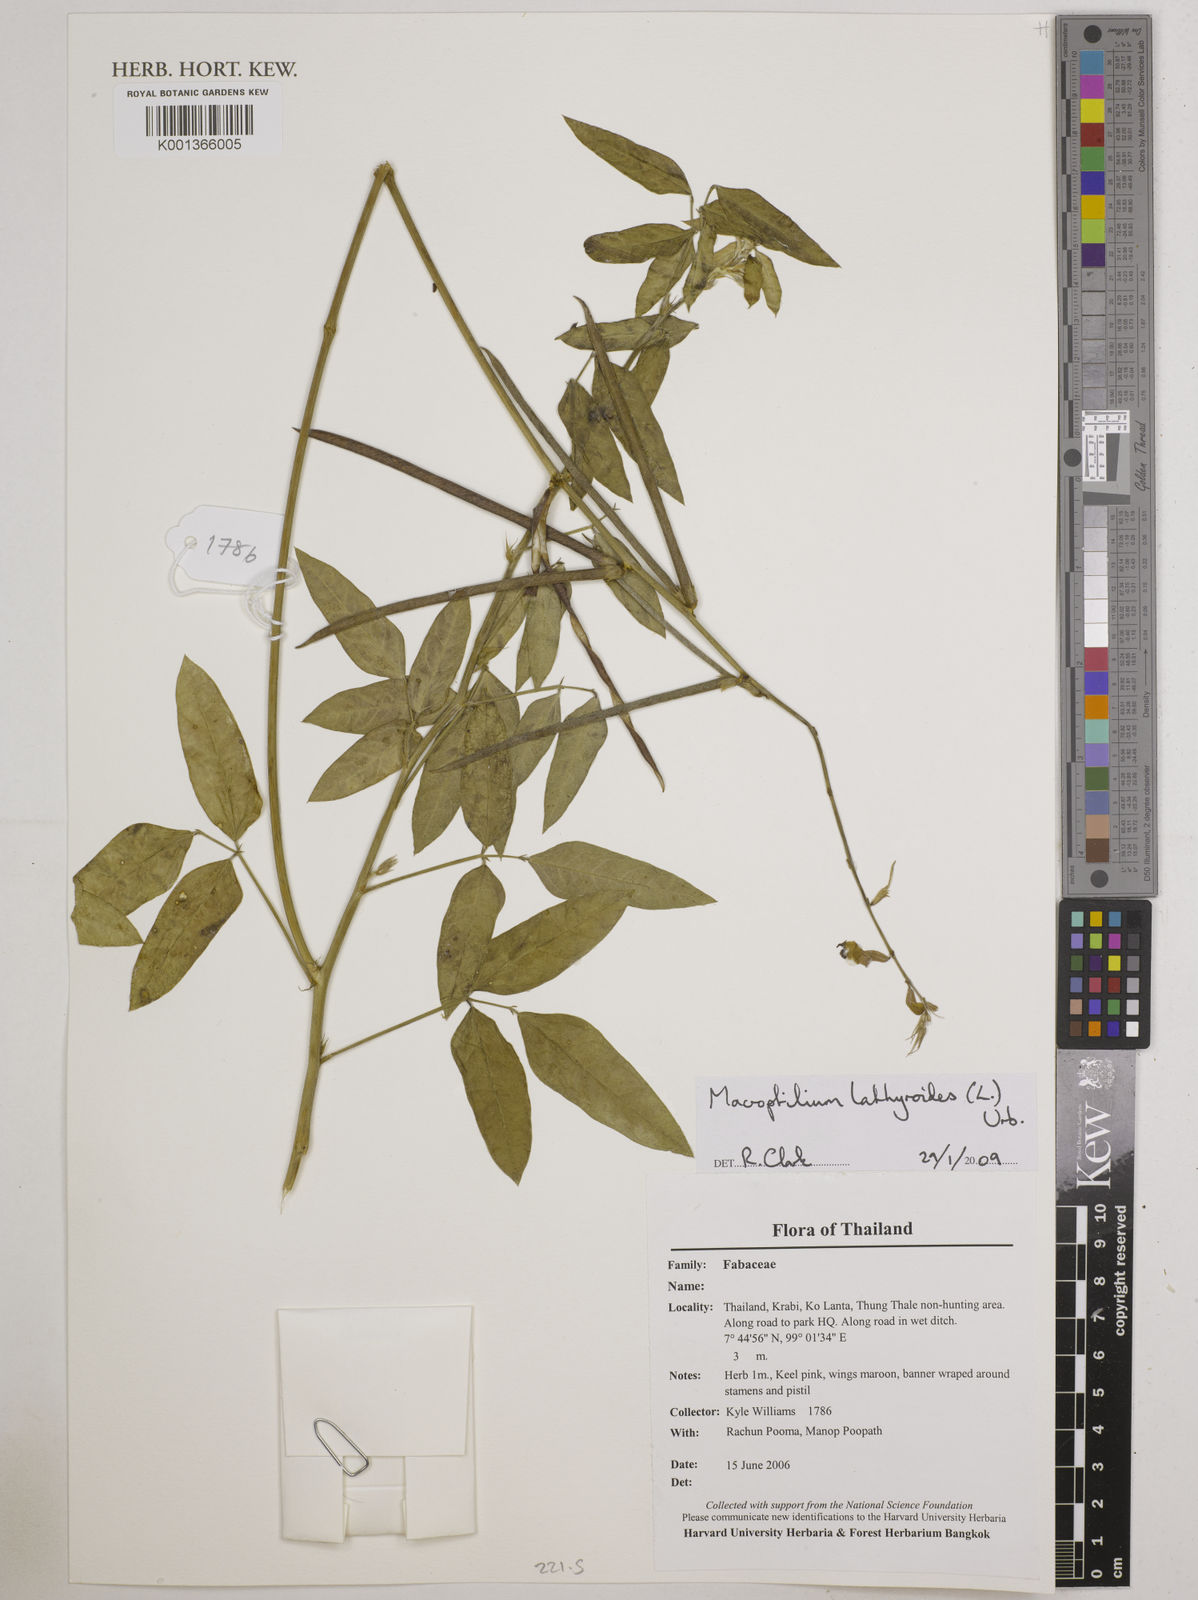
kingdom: Plantae
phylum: Tracheophyta
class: Magnoliopsida
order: Fabales
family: Fabaceae
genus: Macroptilium
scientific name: Macroptilium lathyroides
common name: Wild bushbean
